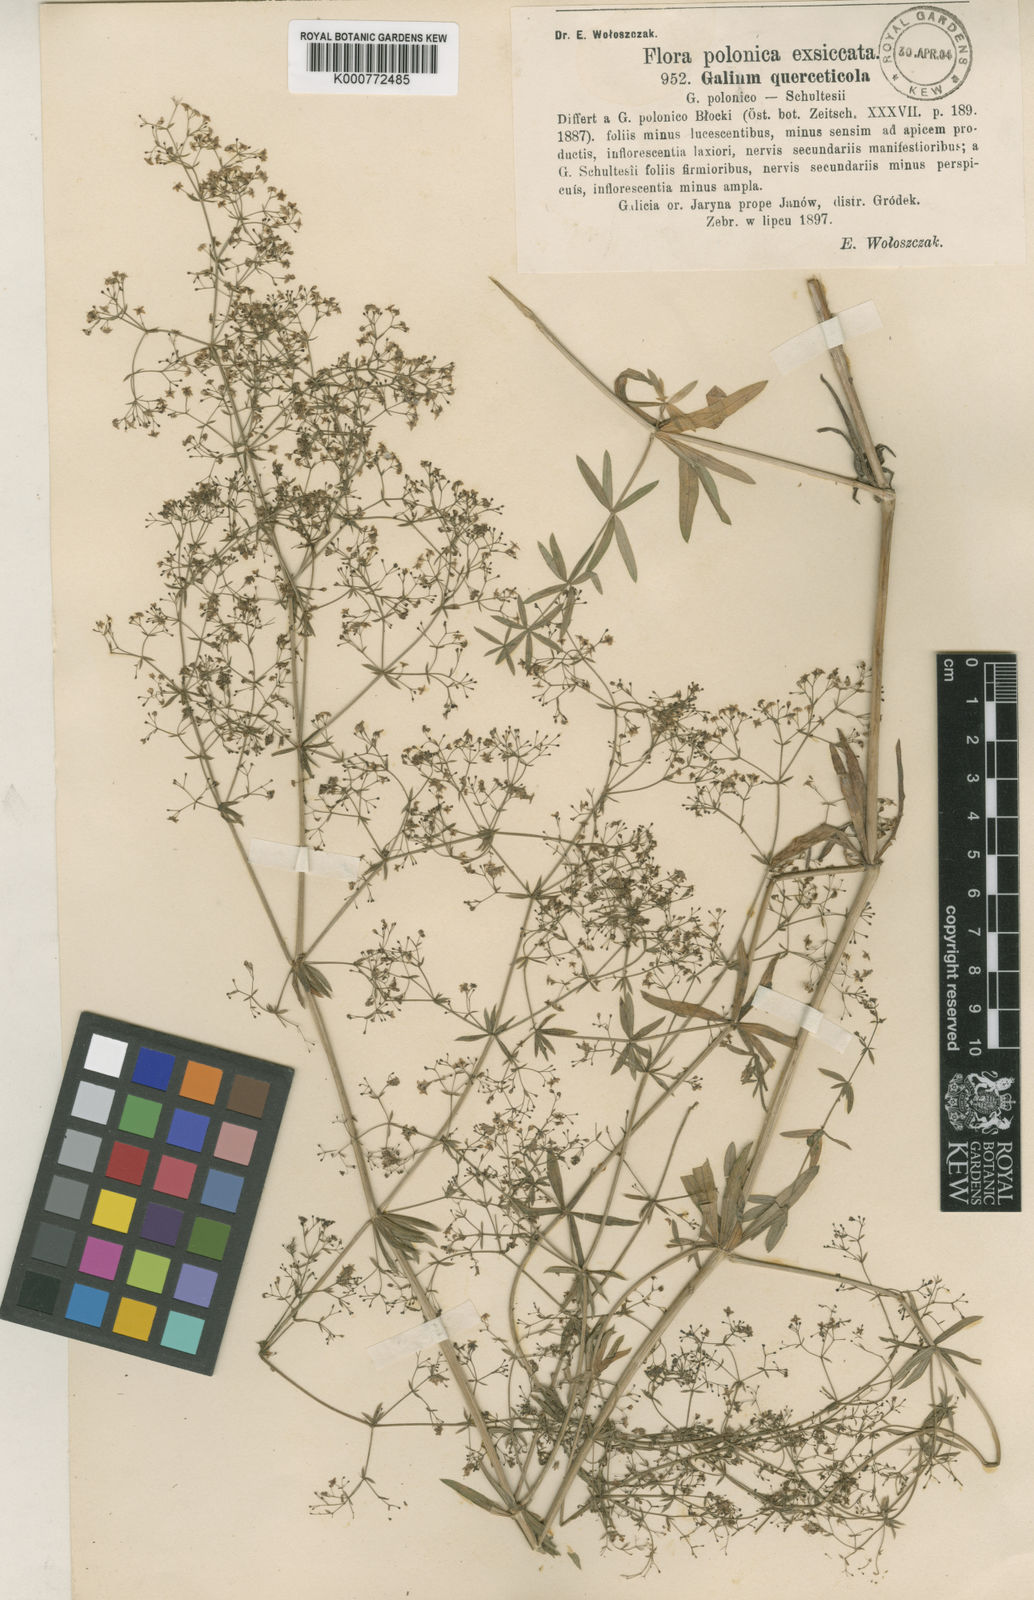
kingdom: Plantae
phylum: Tracheophyta
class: Magnoliopsida
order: Gentianales
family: Rubiaceae
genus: Galium
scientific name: Galium intermedium
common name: Bedstraw
